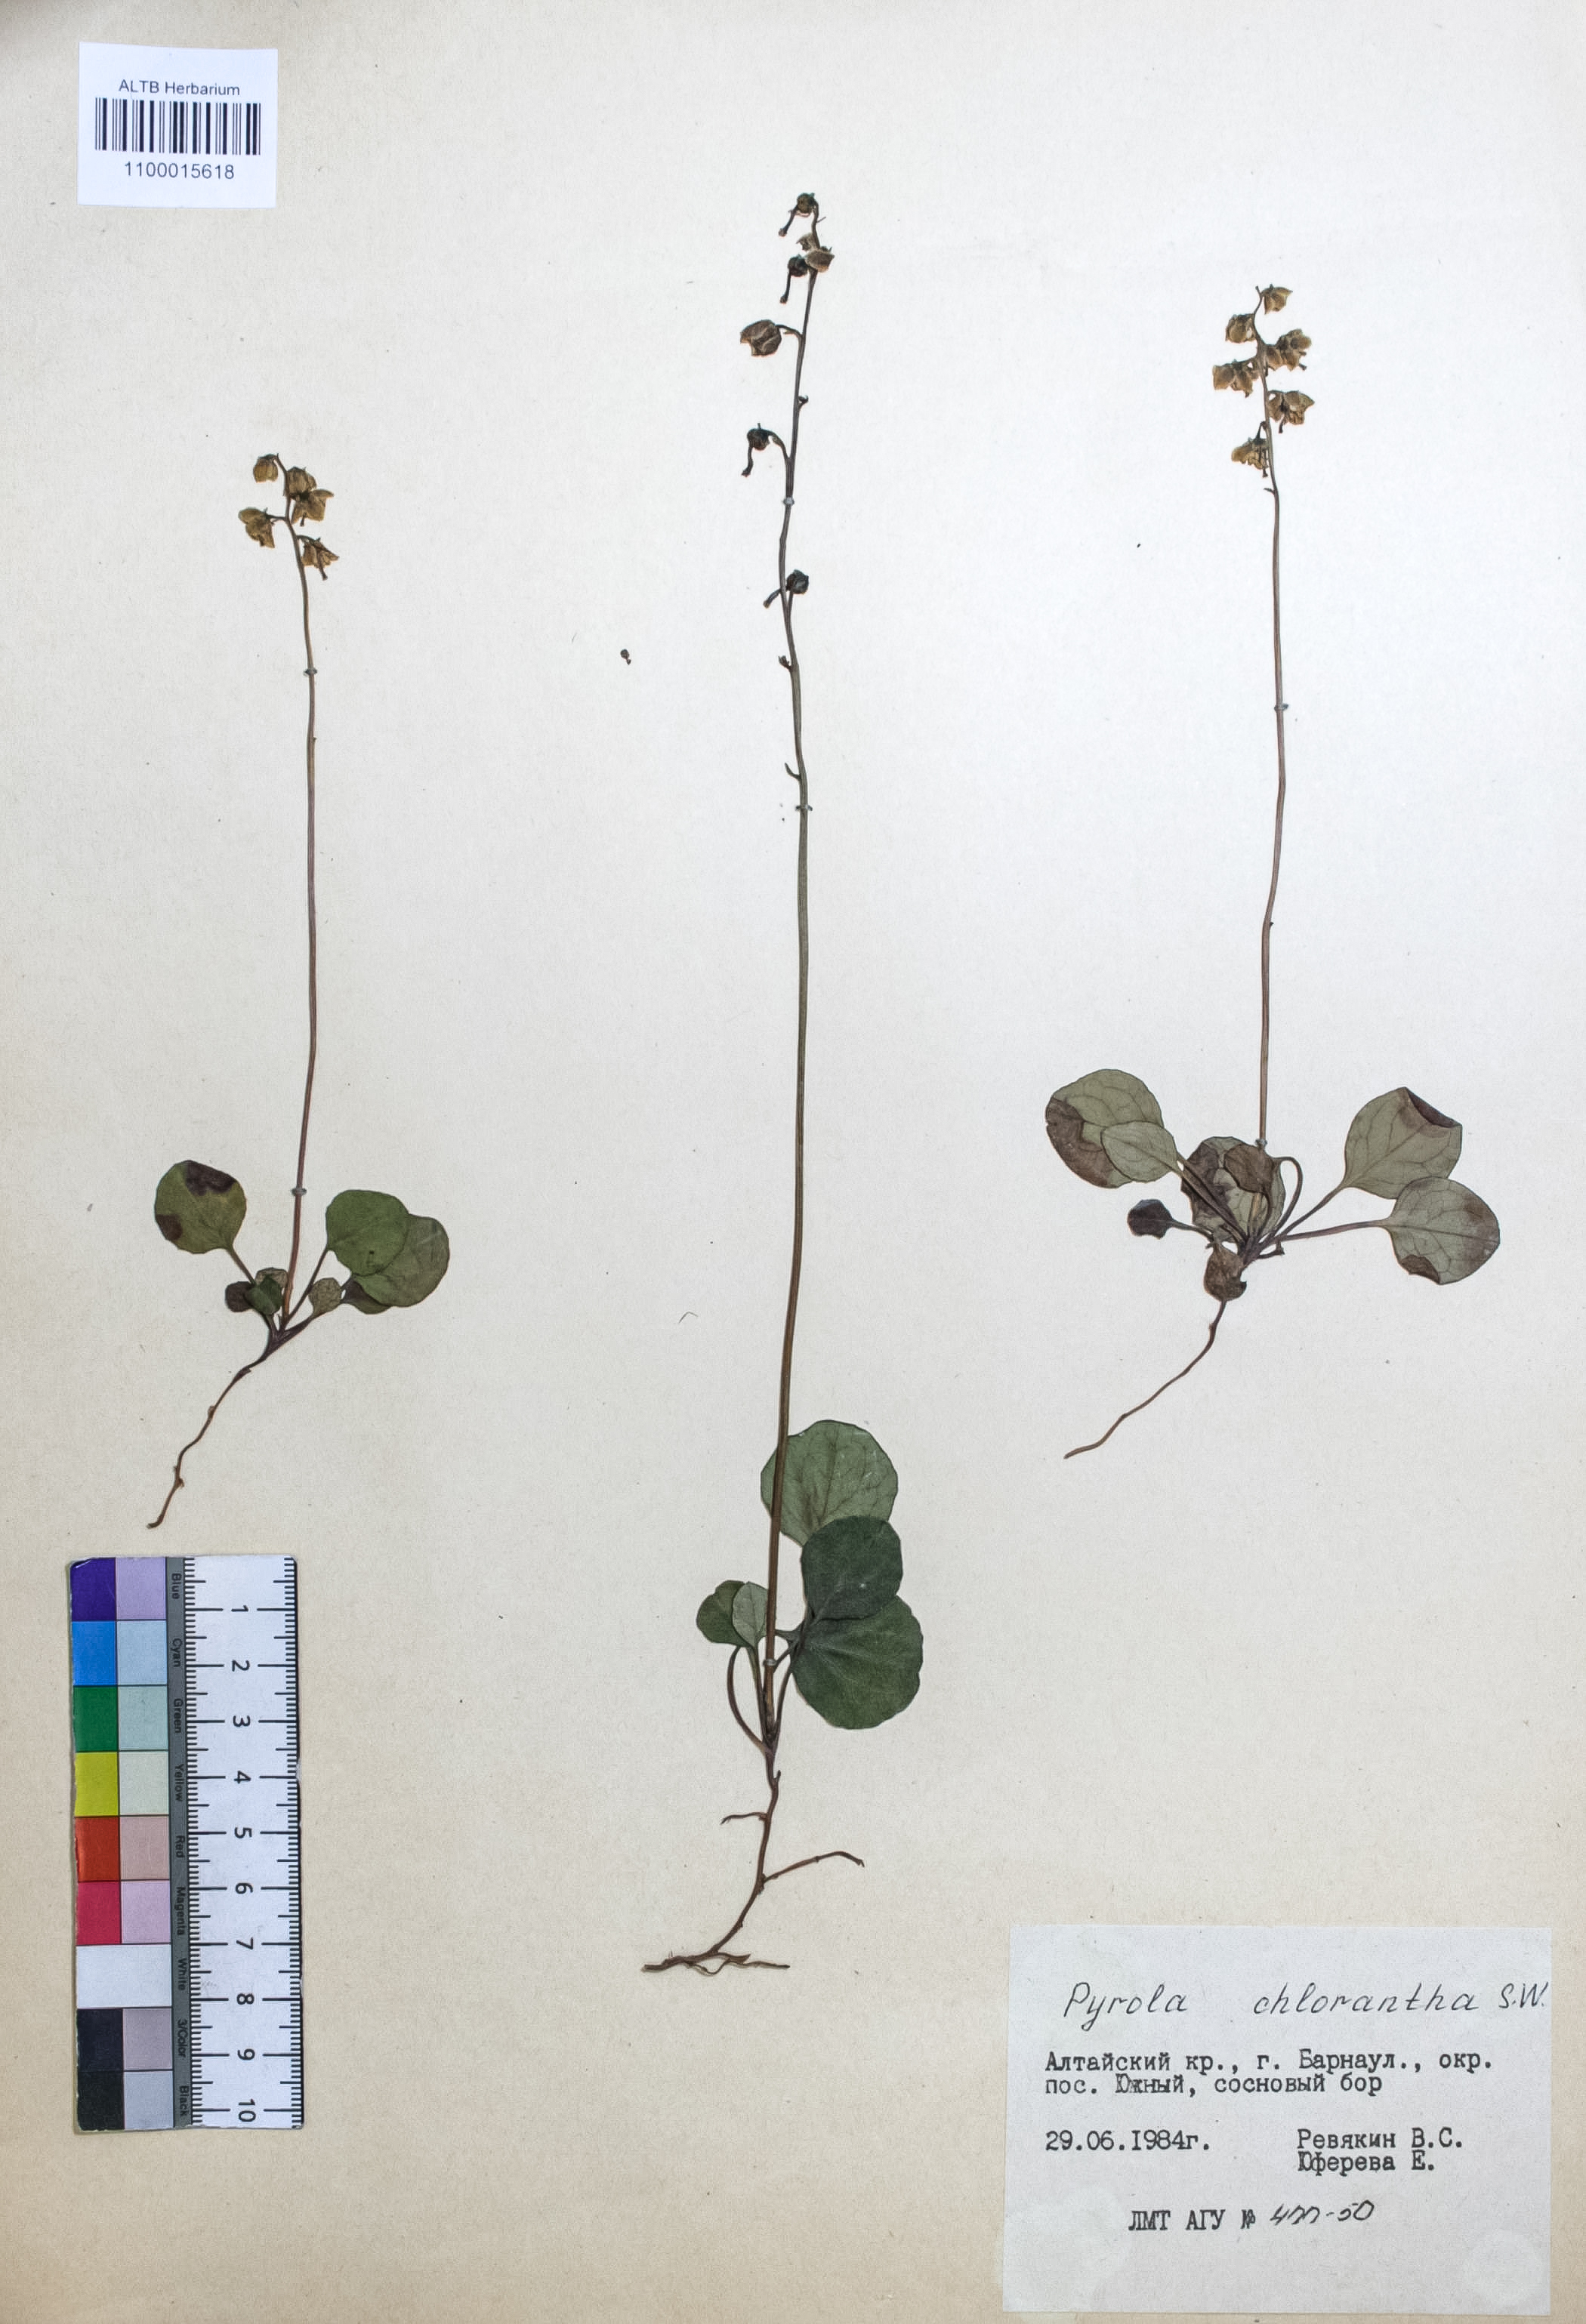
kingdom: Plantae
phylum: Tracheophyta
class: Magnoliopsida
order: Ericales
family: Ericaceae
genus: Pyrola
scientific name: Pyrola chlorantha
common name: Green wintergreen
